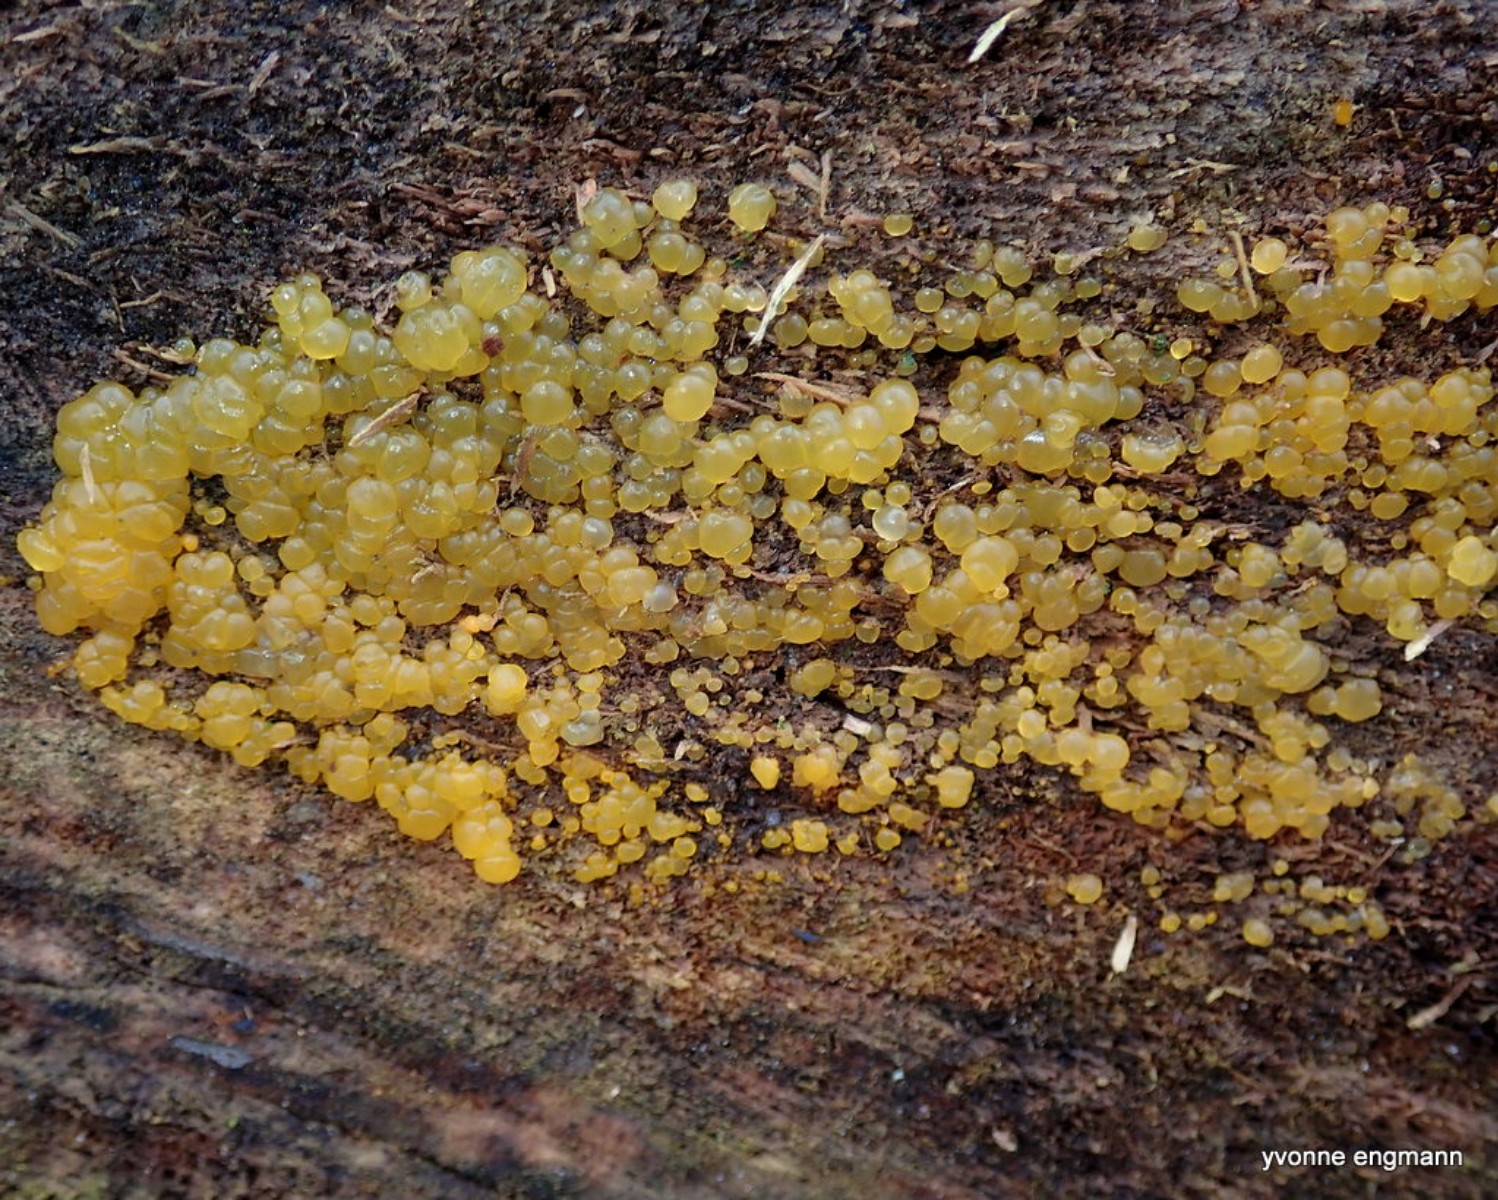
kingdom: Fungi
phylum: Basidiomycota
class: Dacrymycetes
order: Dacrymycetales
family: Dacrymycetaceae
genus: Dacrymyces
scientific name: Dacrymyces
